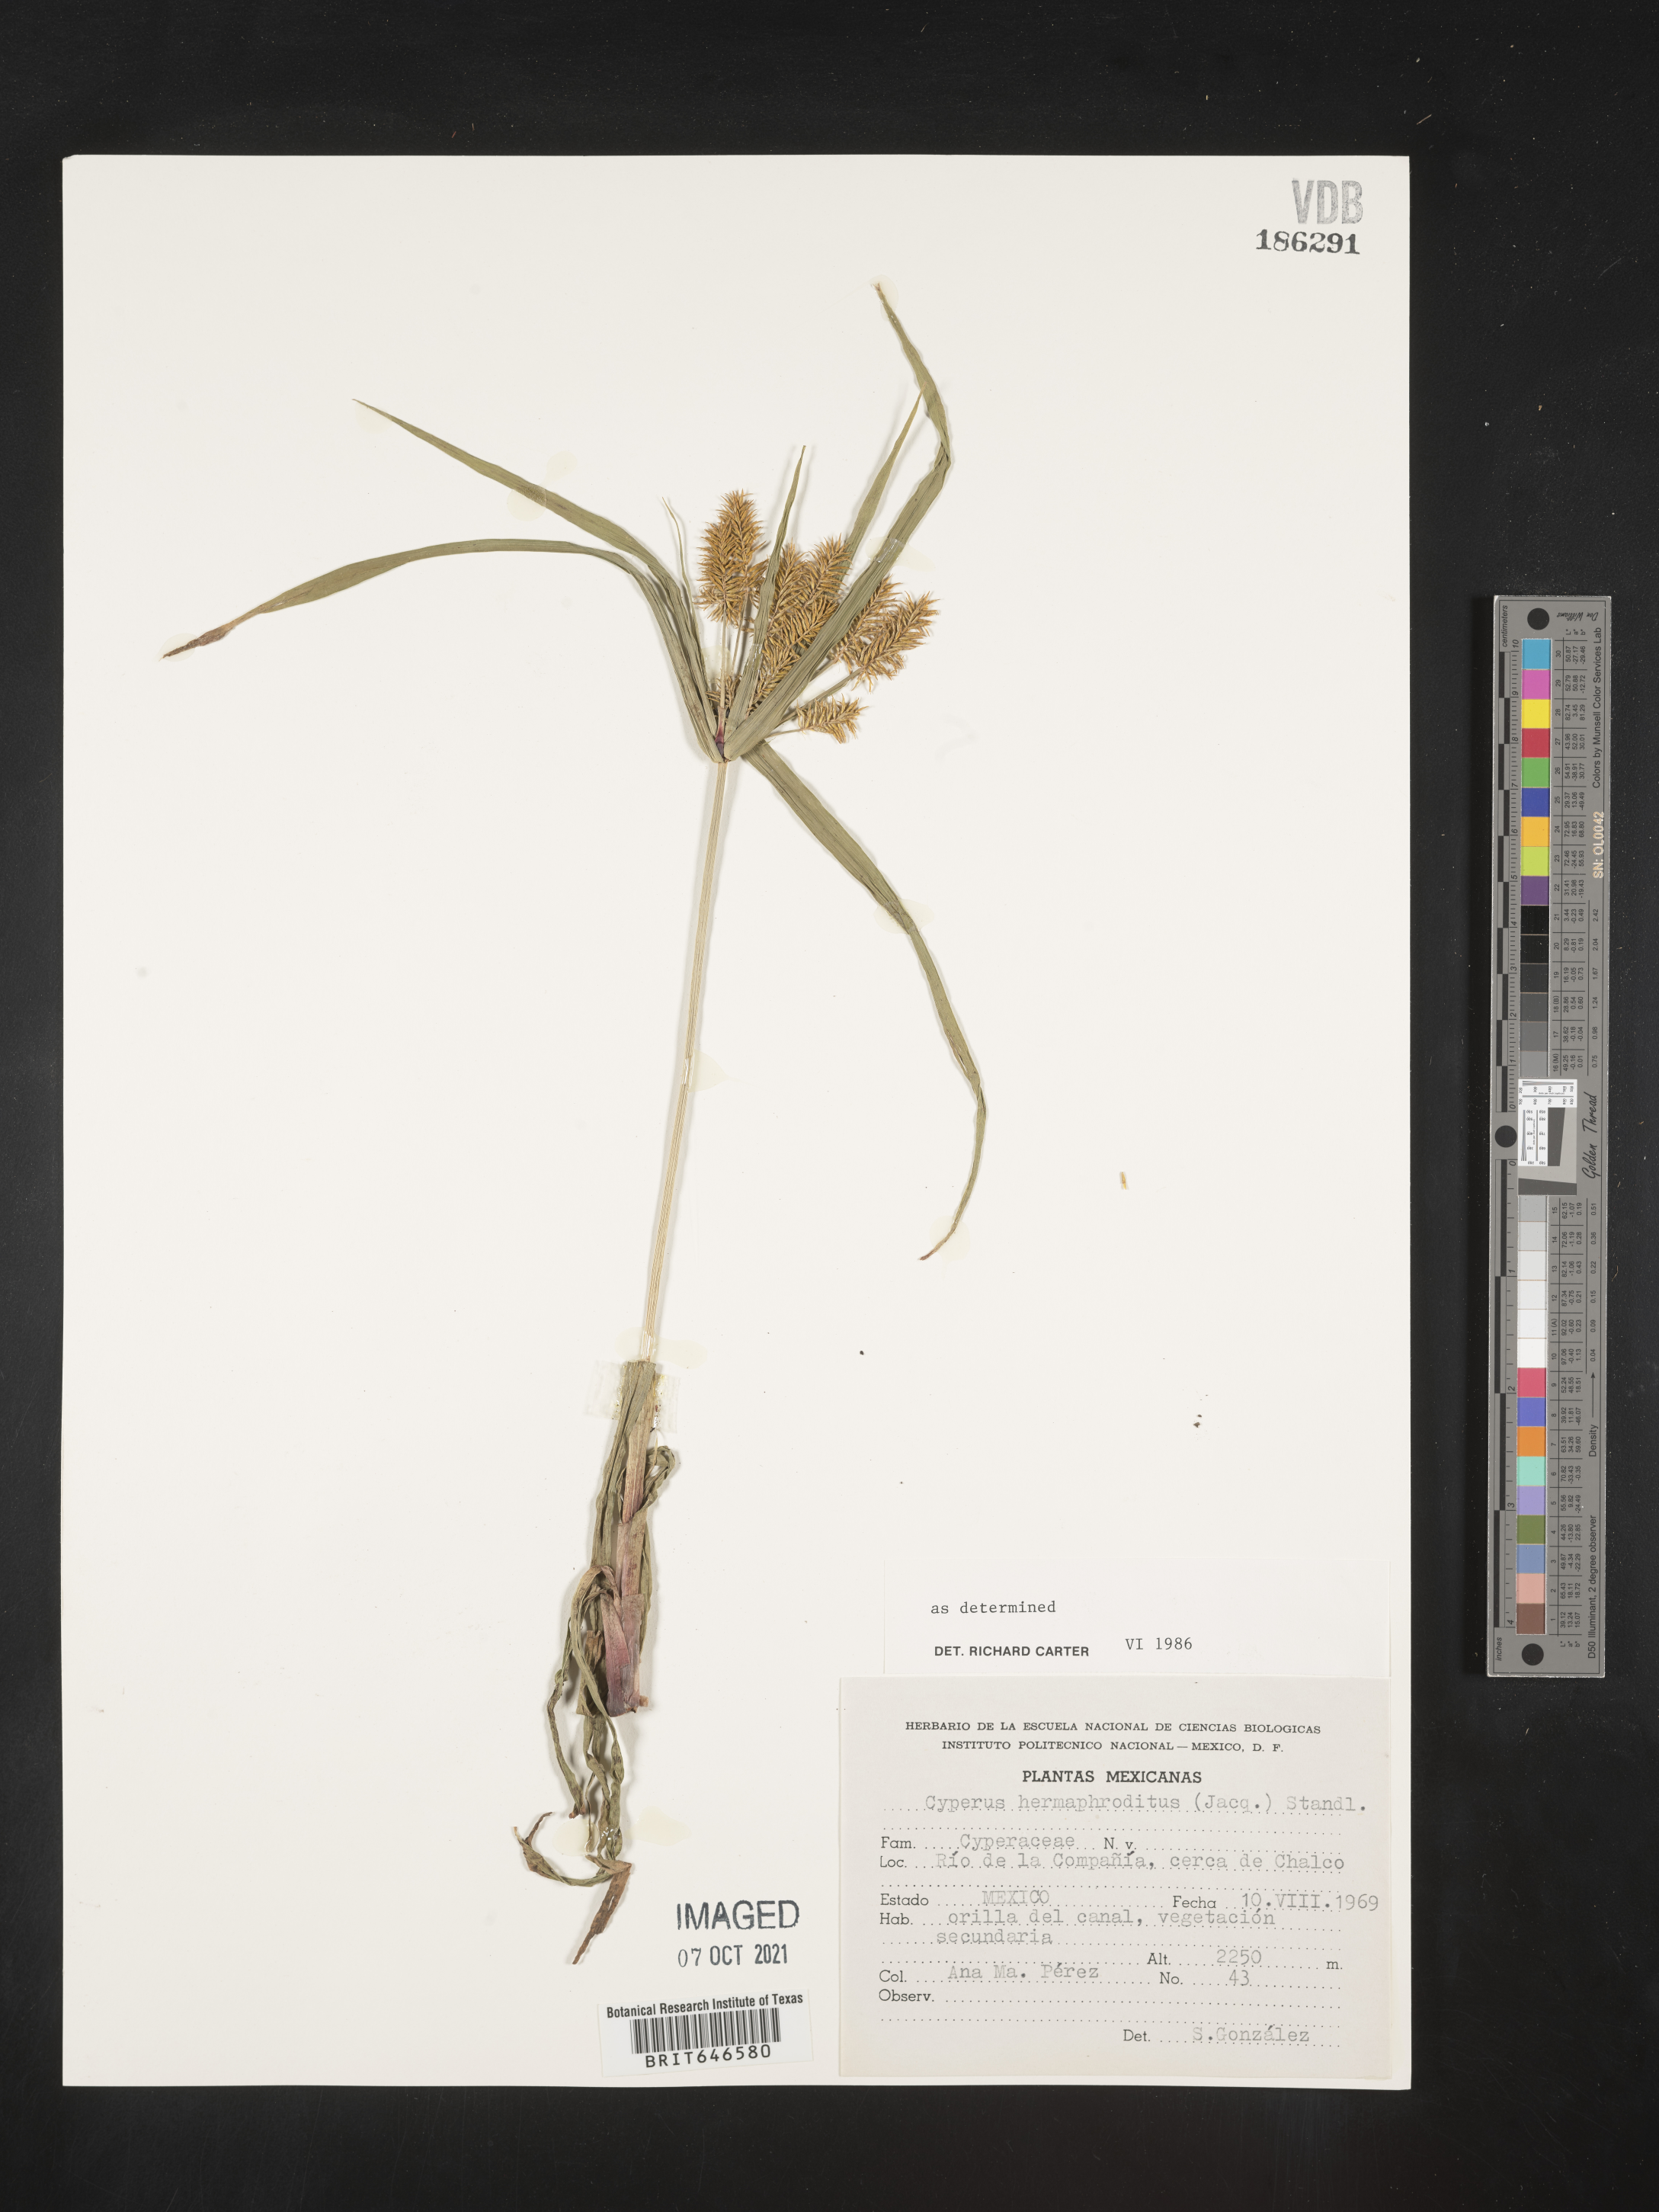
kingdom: Plantae
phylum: Tracheophyta
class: Liliopsida
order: Poales
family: Cyperaceae
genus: Cyperus
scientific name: Cyperus
